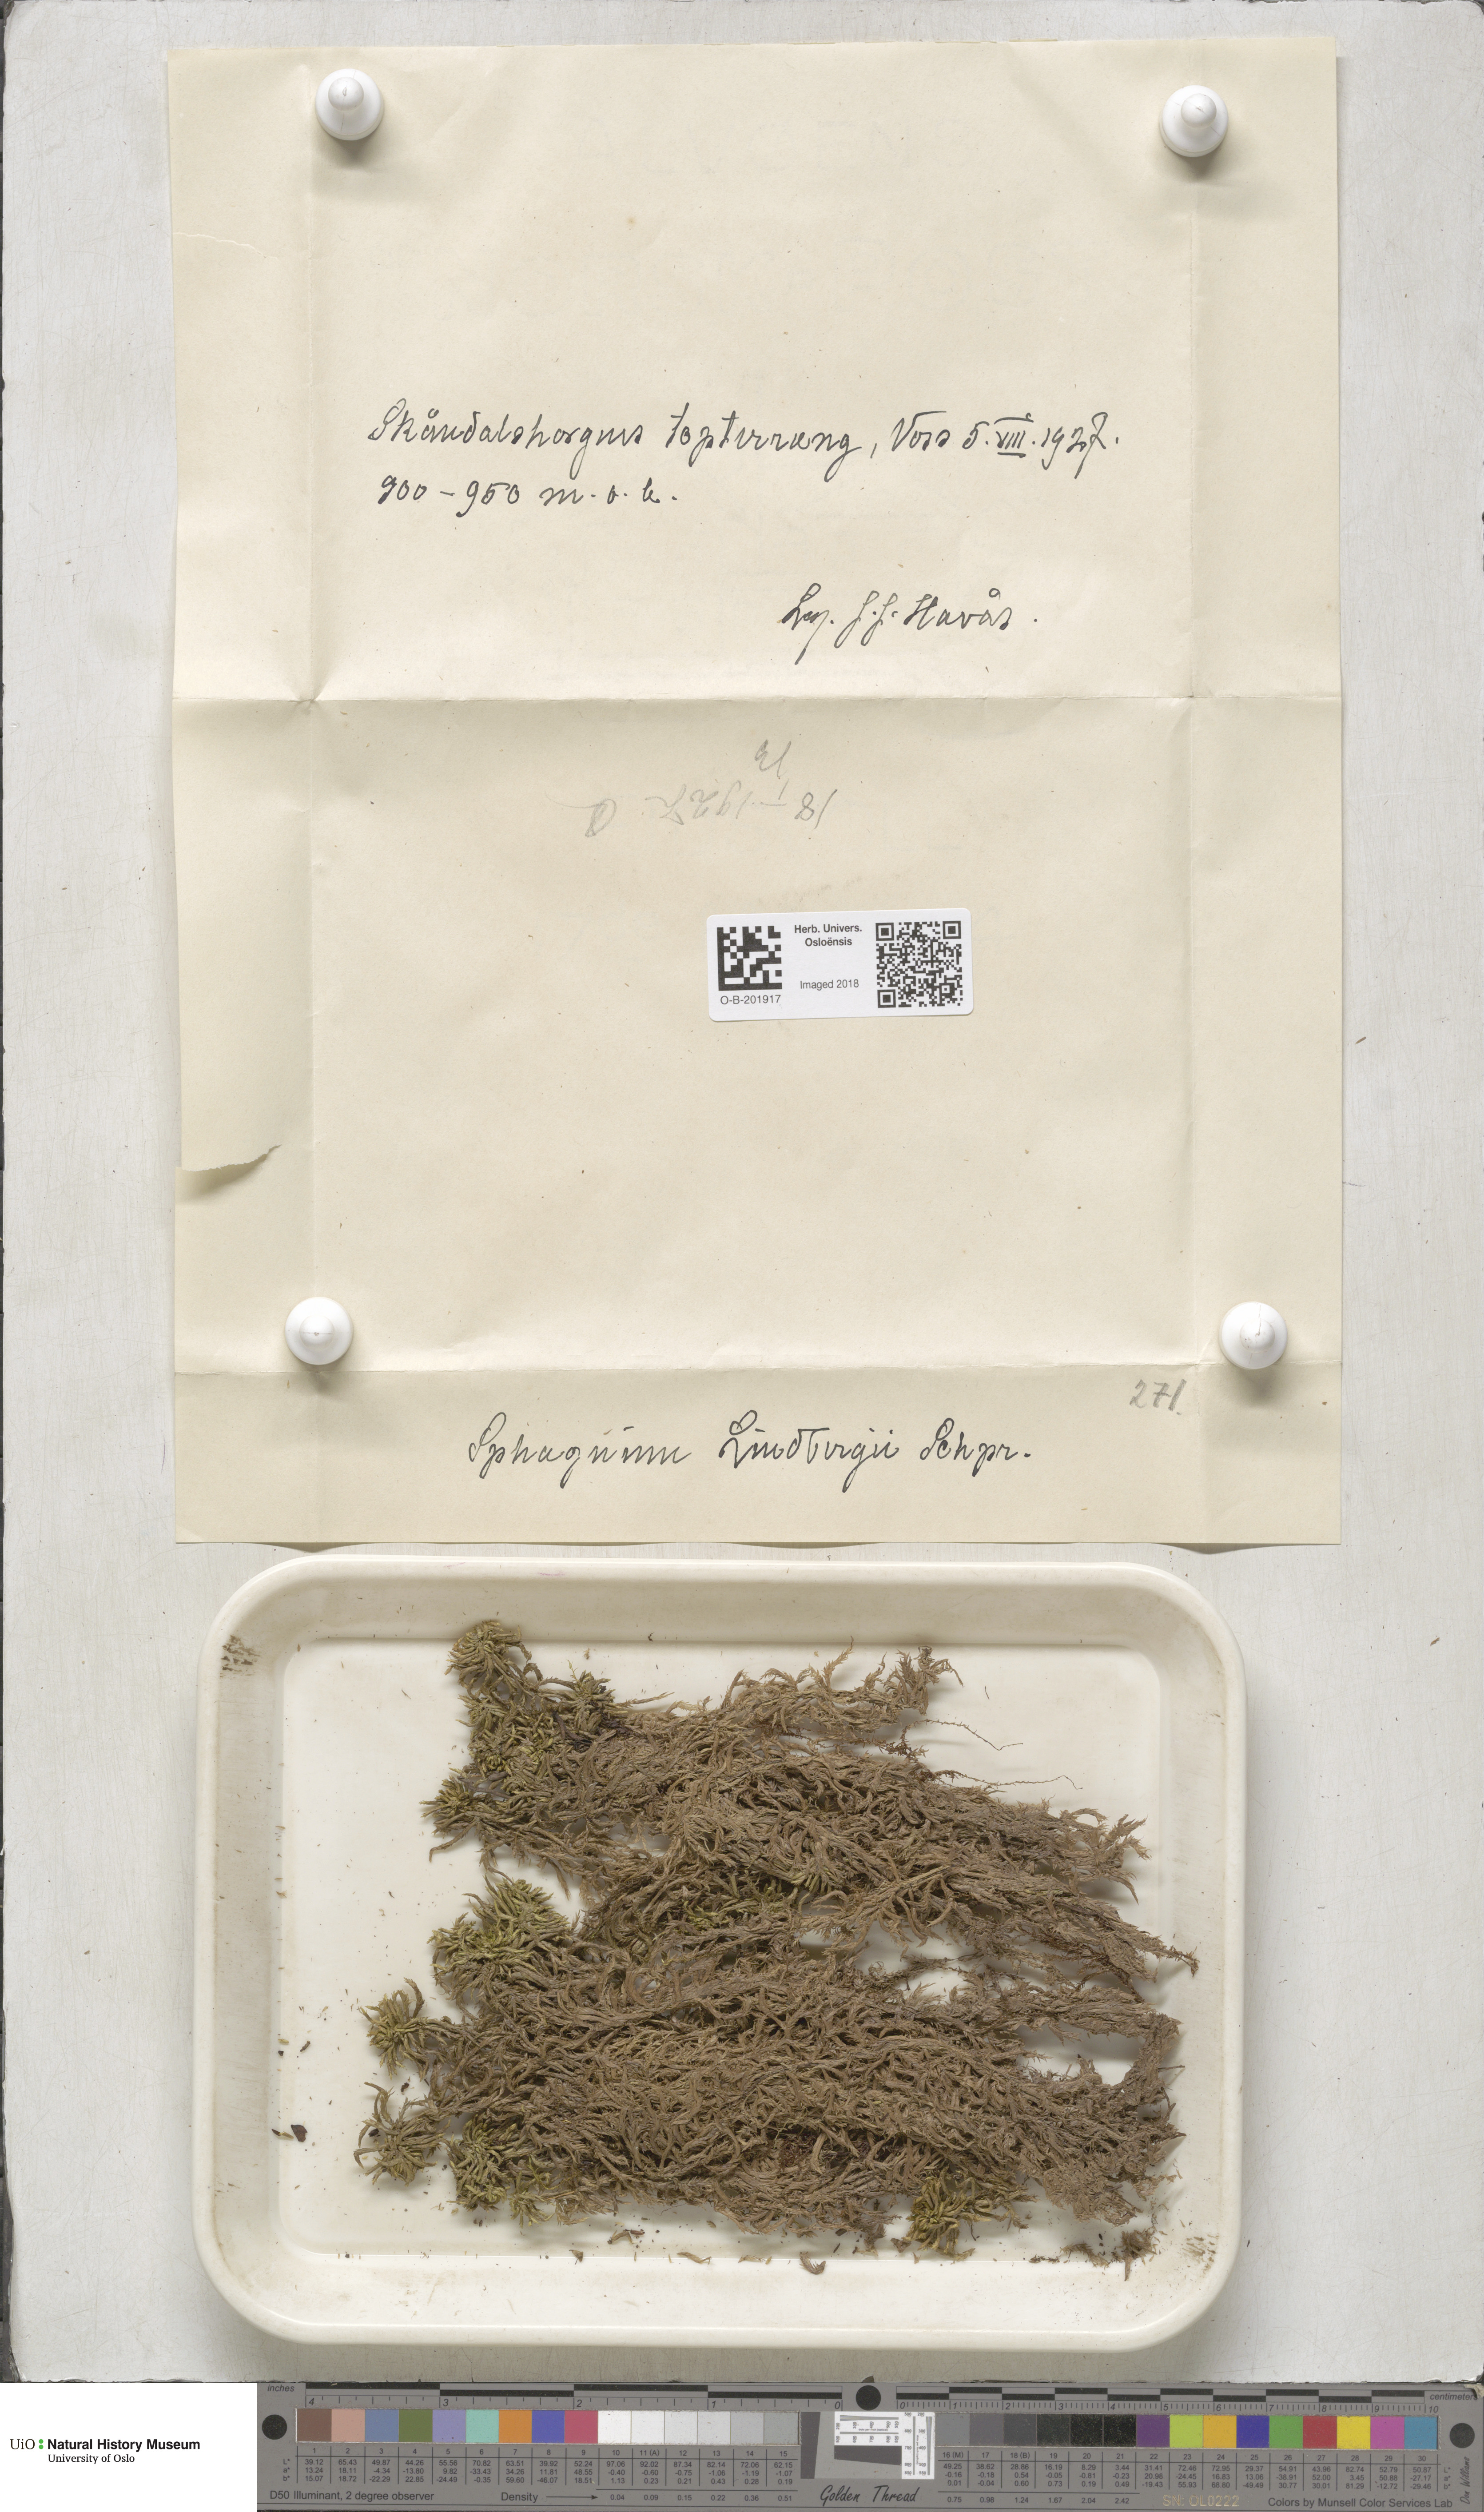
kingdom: Plantae
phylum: Bryophyta
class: Sphagnopsida
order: Sphagnales
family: Sphagnaceae
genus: Sphagnum
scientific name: Sphagnum lindbergii
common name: Lindberg's peat moss
